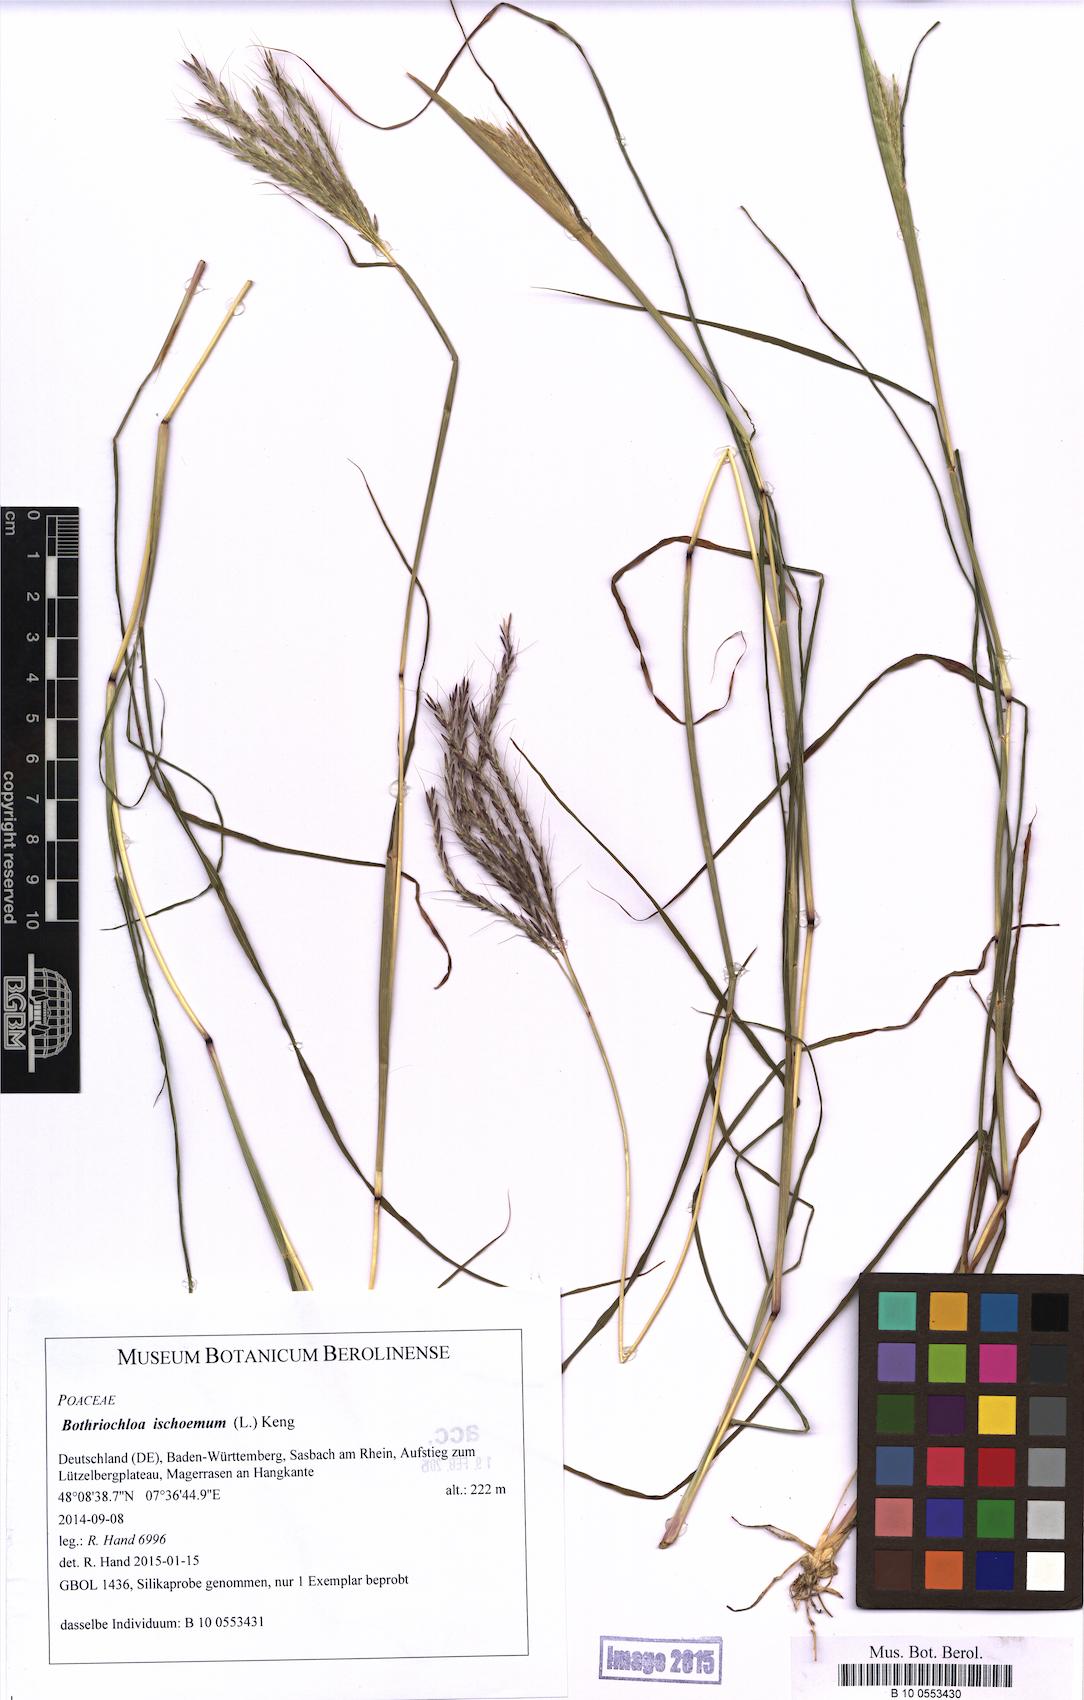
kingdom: Plantae
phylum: Tracheophyta
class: Liliopsida
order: Poales
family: Poaceae
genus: Bothriochloa
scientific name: Bothriochloa ischaemum
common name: Yellow bluestem
